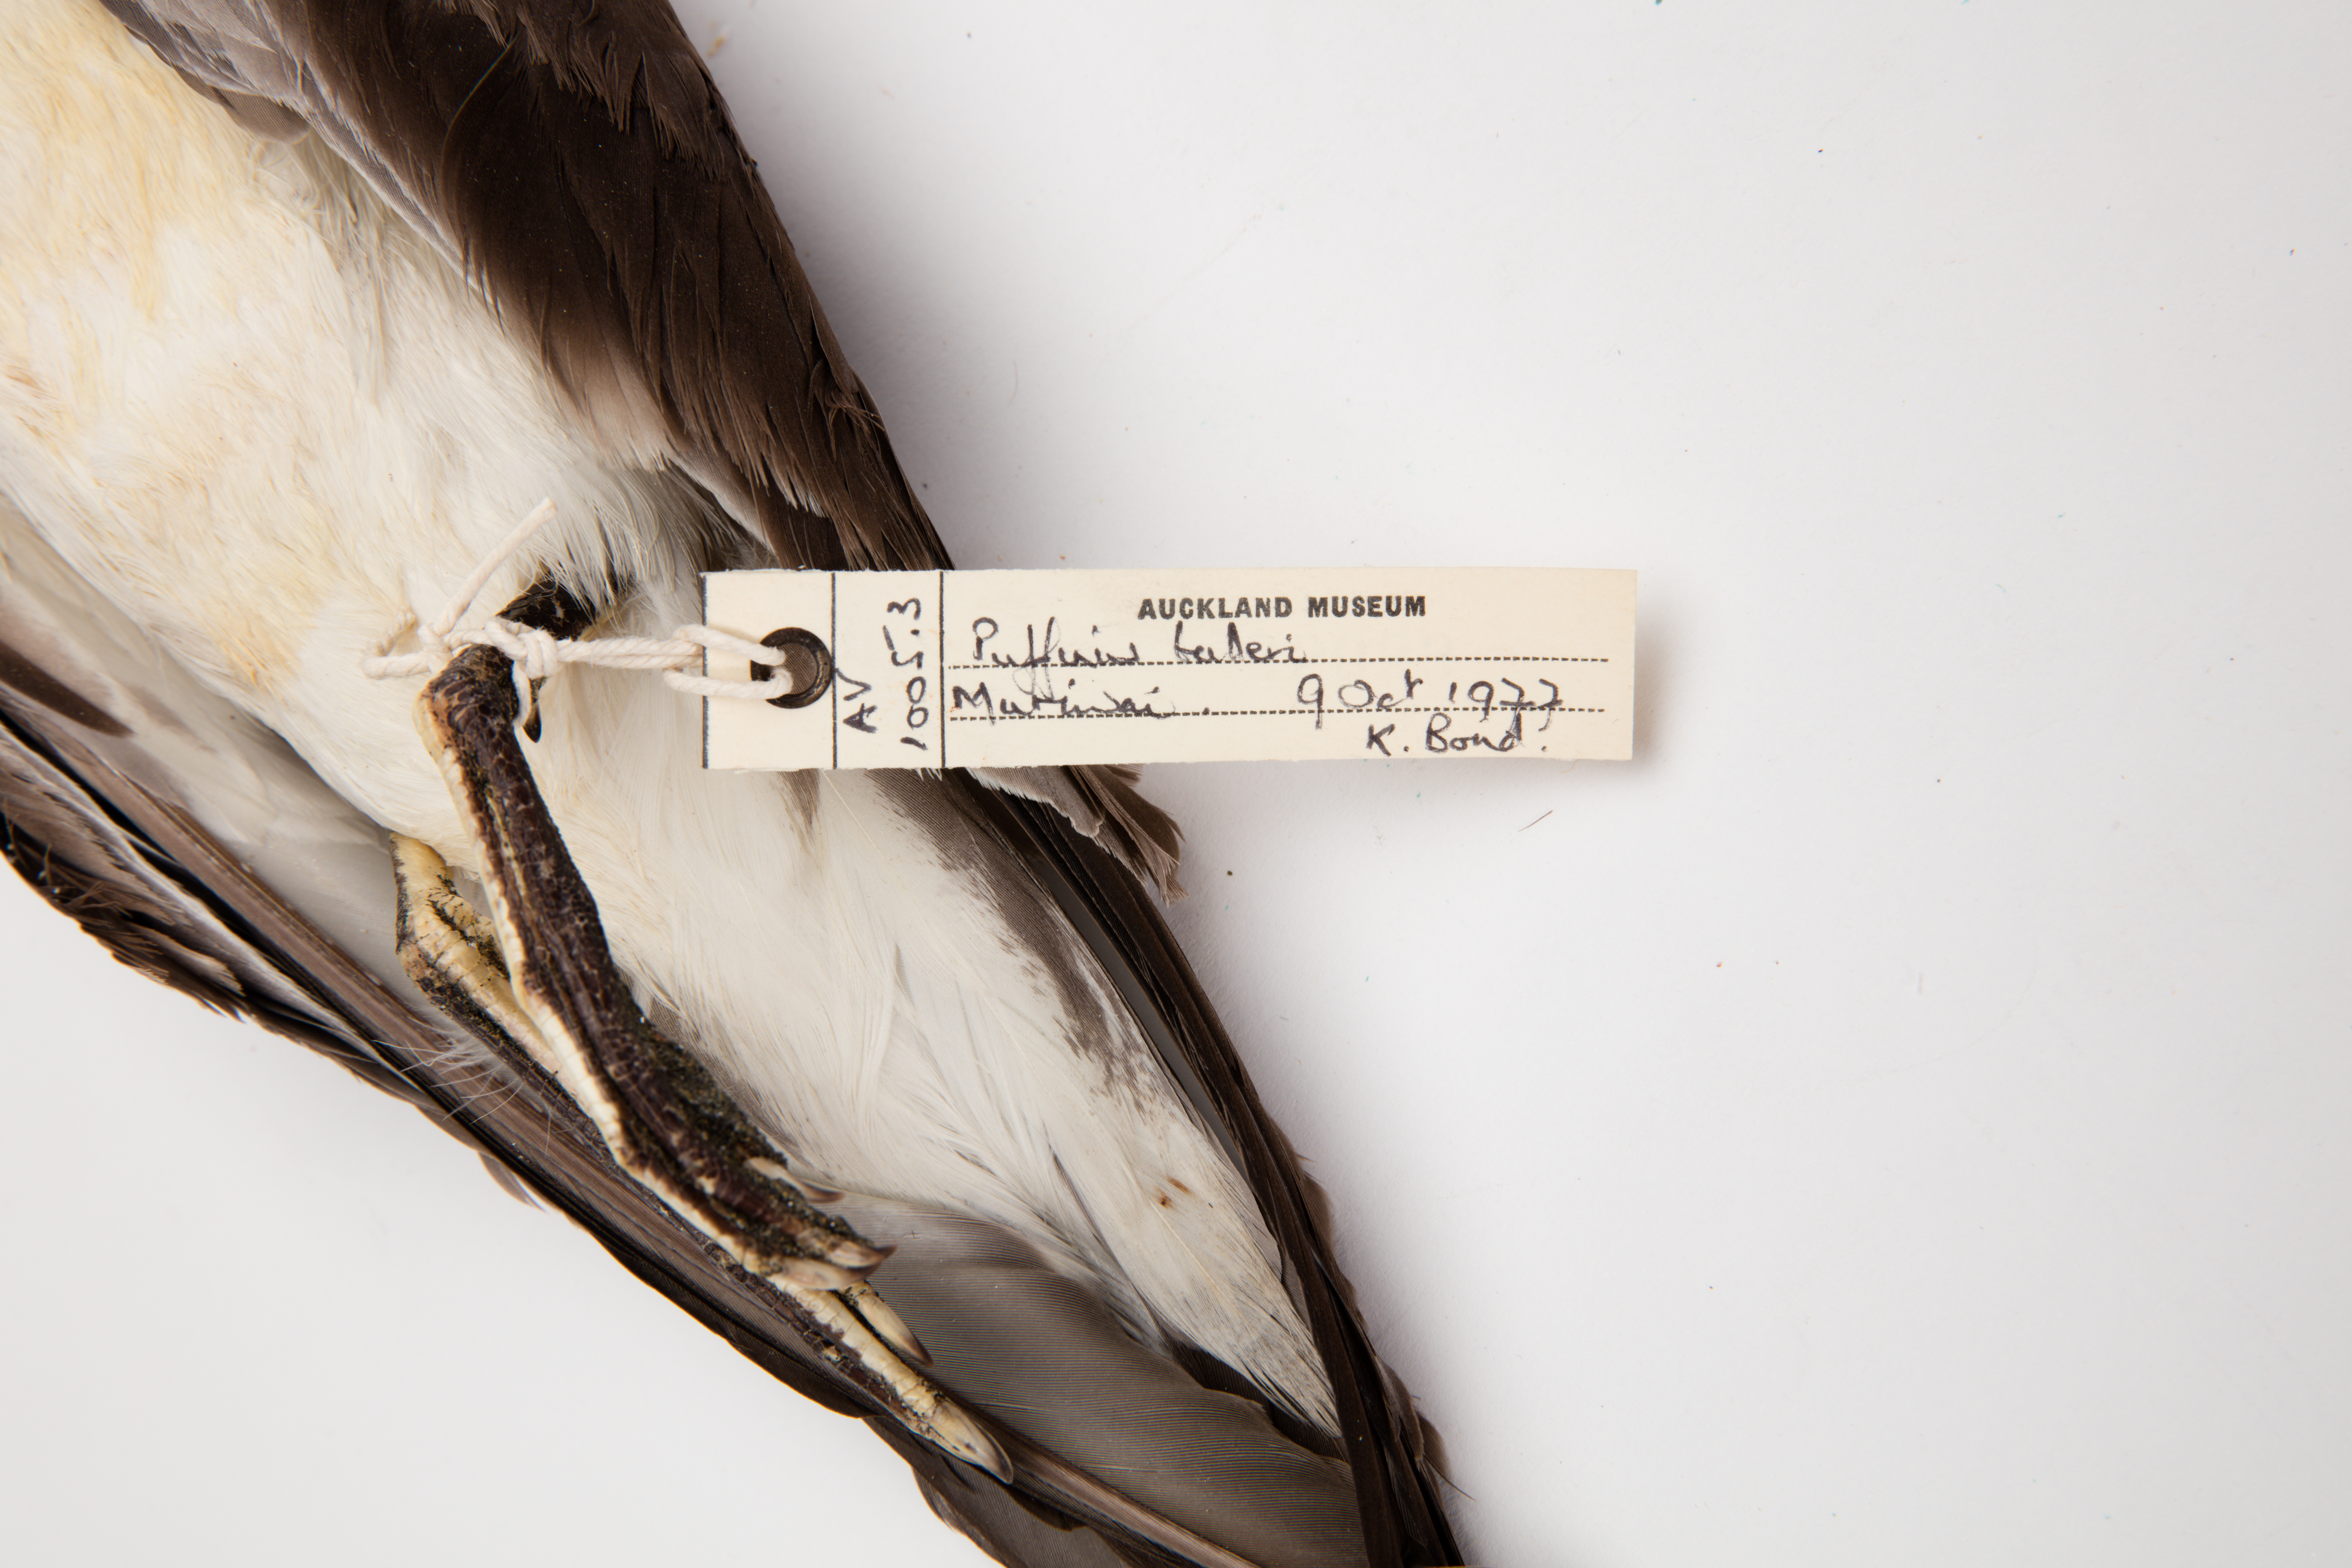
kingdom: Animalia
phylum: Chordata
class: Aves
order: Procellariiformes
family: Procellariidae
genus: Ardenna
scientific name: Ardenna
